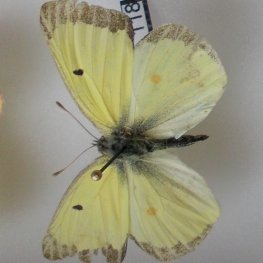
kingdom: Animalia
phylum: Arthropoda
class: Insecta
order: Lepidoptera
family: Pieridae
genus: Colias
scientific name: Colias philodice
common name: Clouded Sulphur
